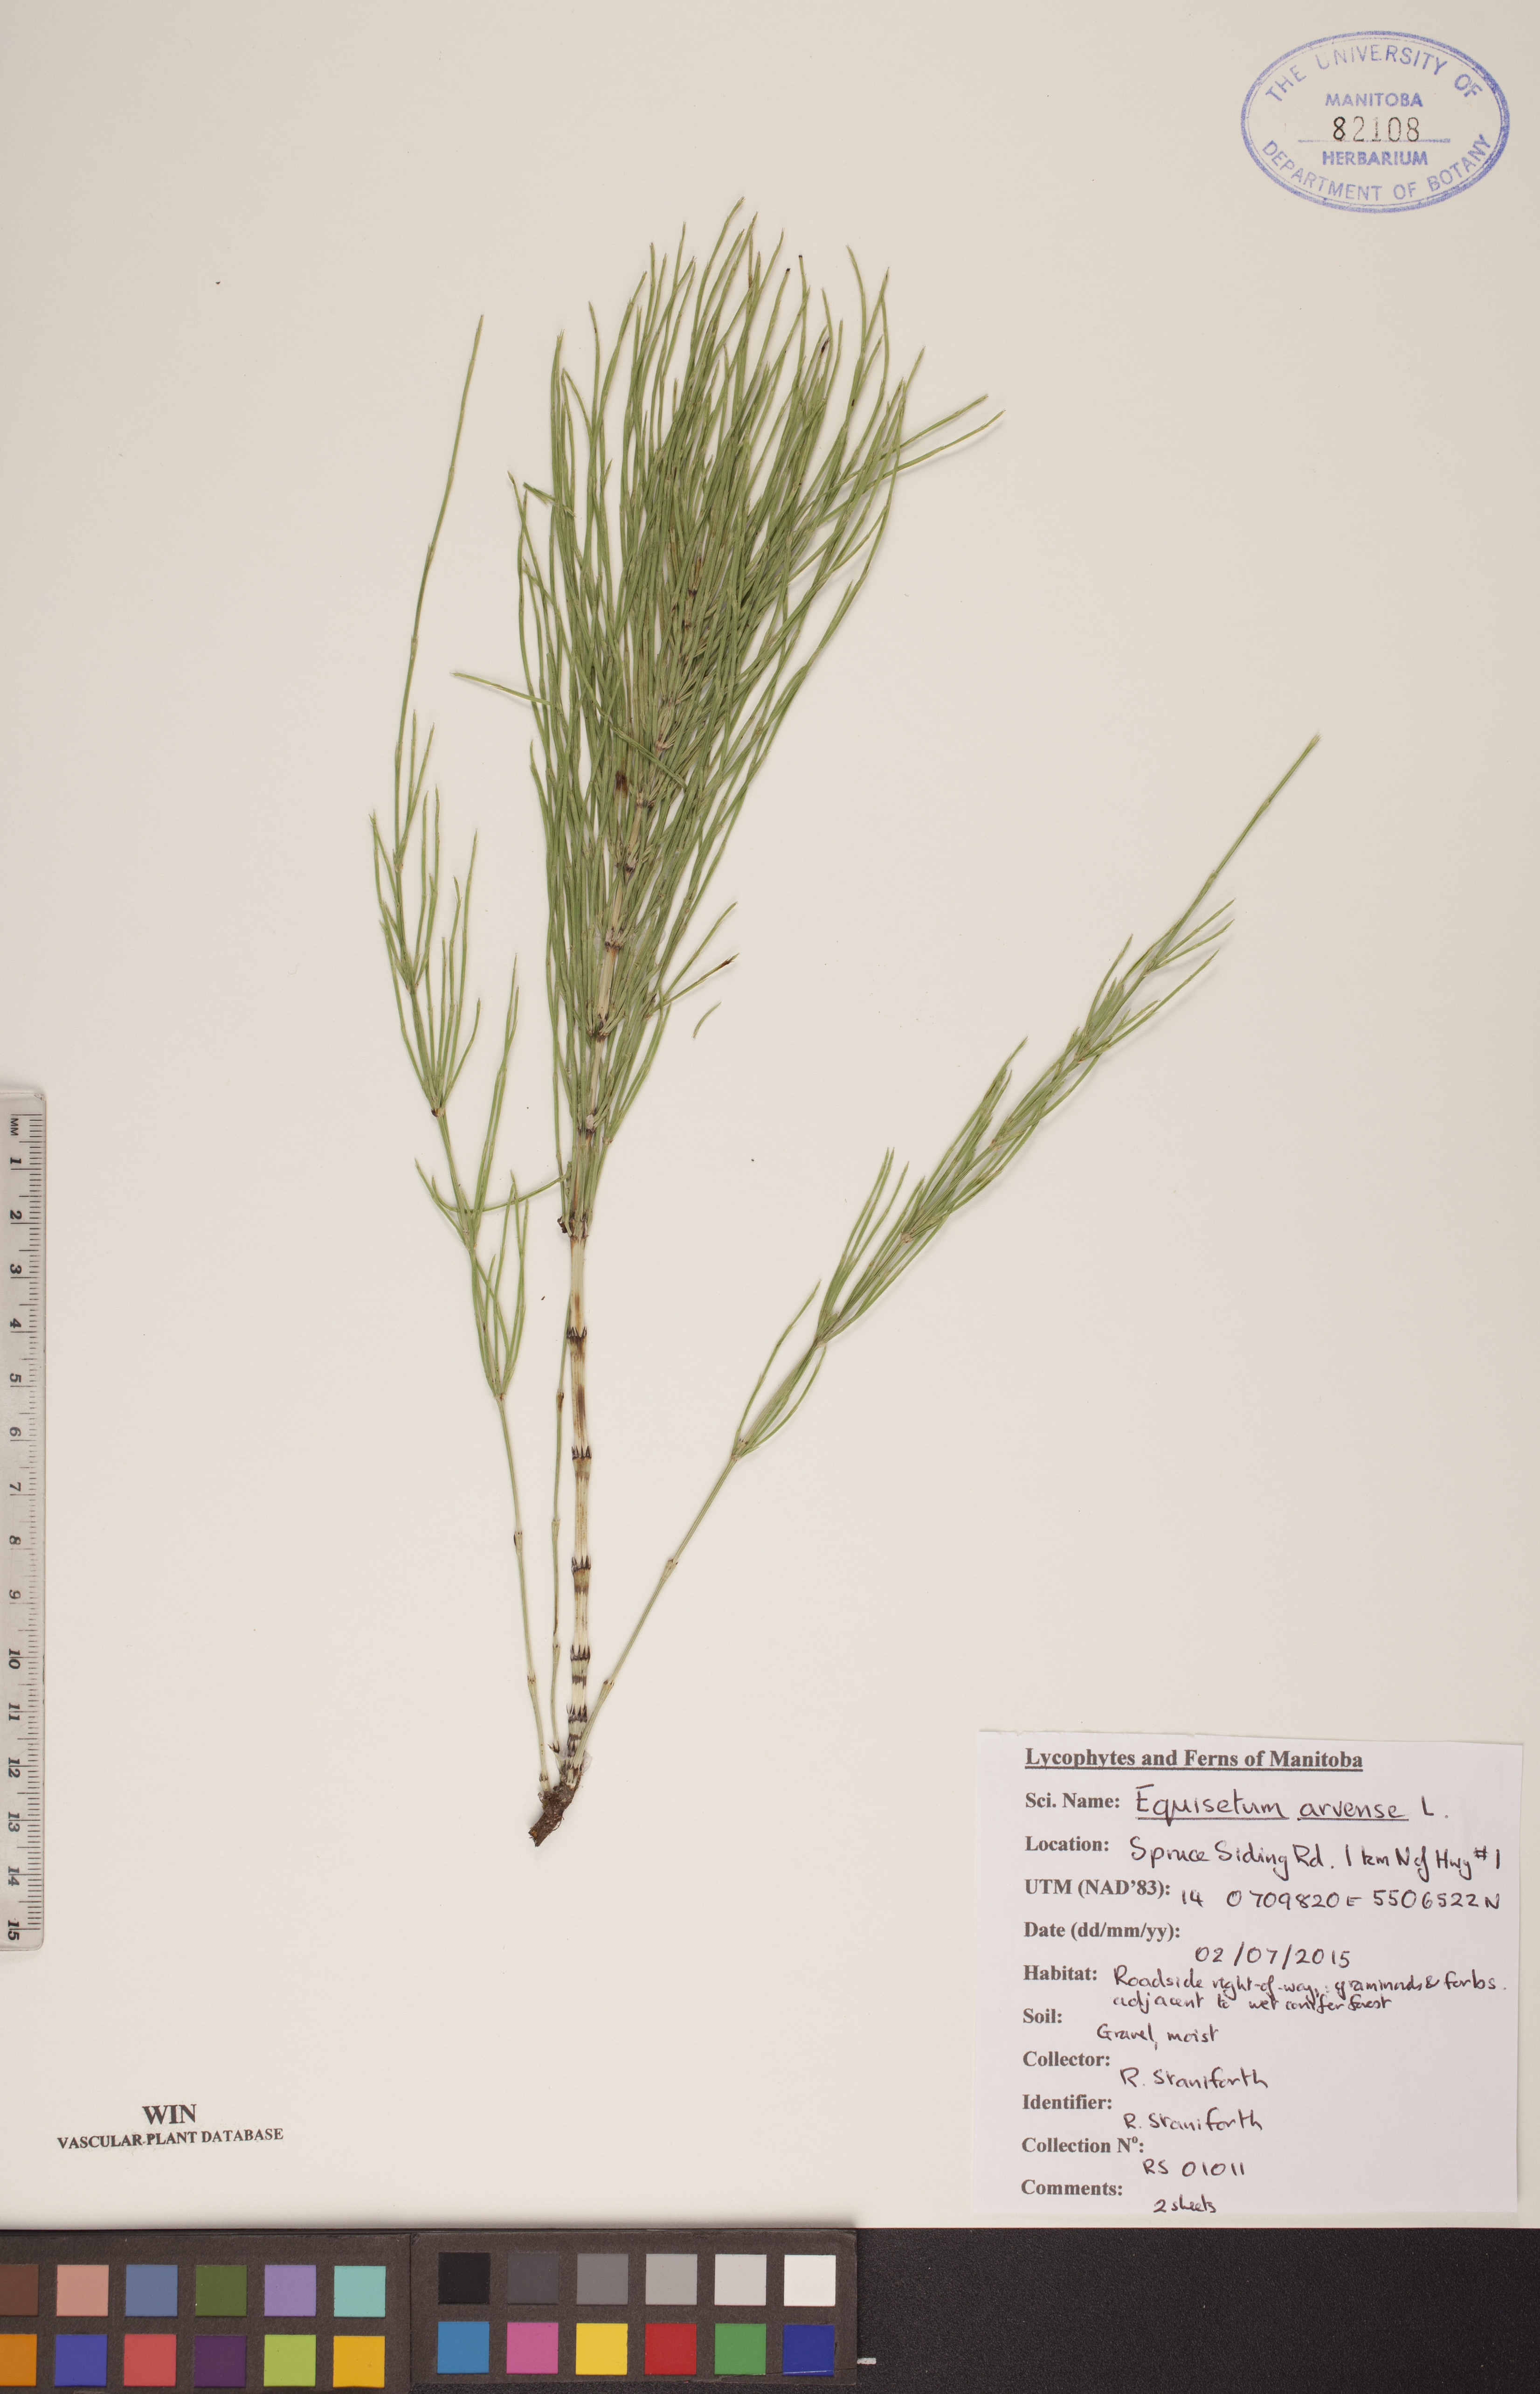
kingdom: Plantae
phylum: Tracheophyta
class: Polypodiopsida
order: Equisetales
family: Equisetaceae
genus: Equisetum
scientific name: Equisetum arvense
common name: Field horsetail
